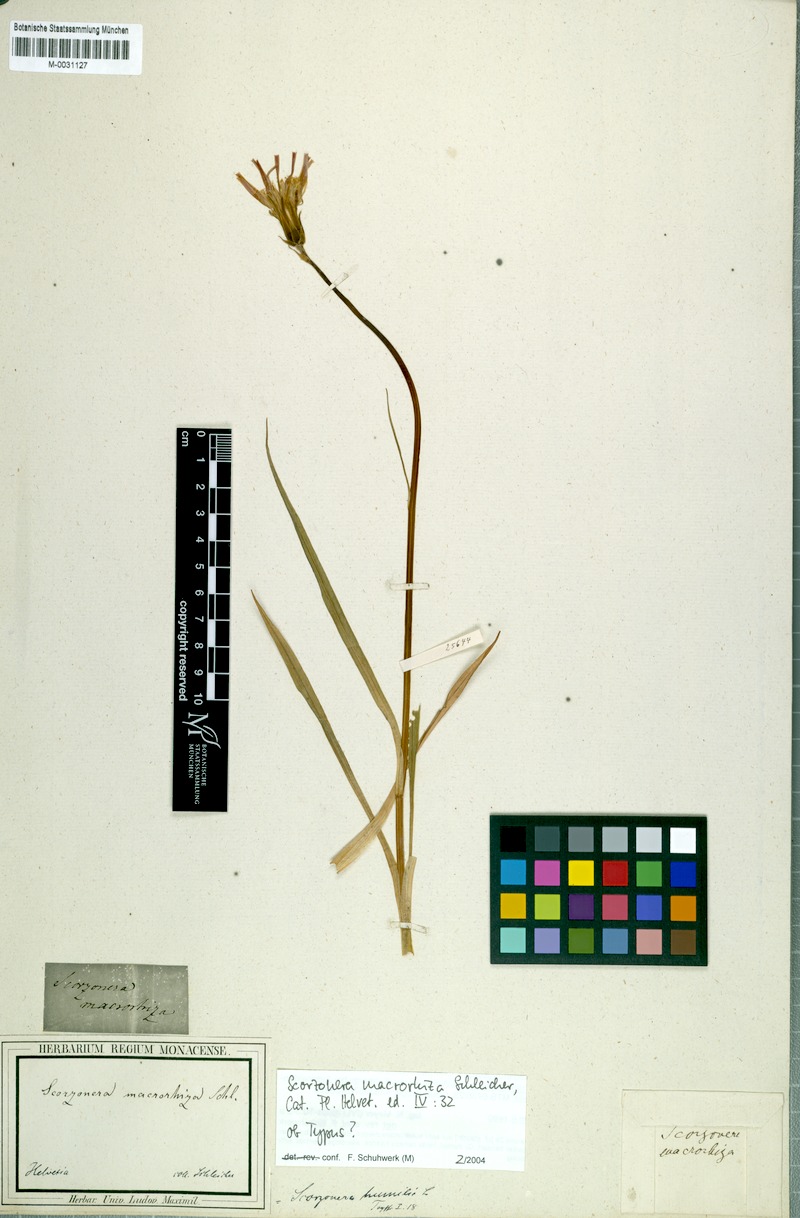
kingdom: Plantae
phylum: Tracheophyta
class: Magnoliopsida
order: Asterales
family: Asteraceae
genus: Scorzonera
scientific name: Scorzonera humilis
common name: Viper's-grass
